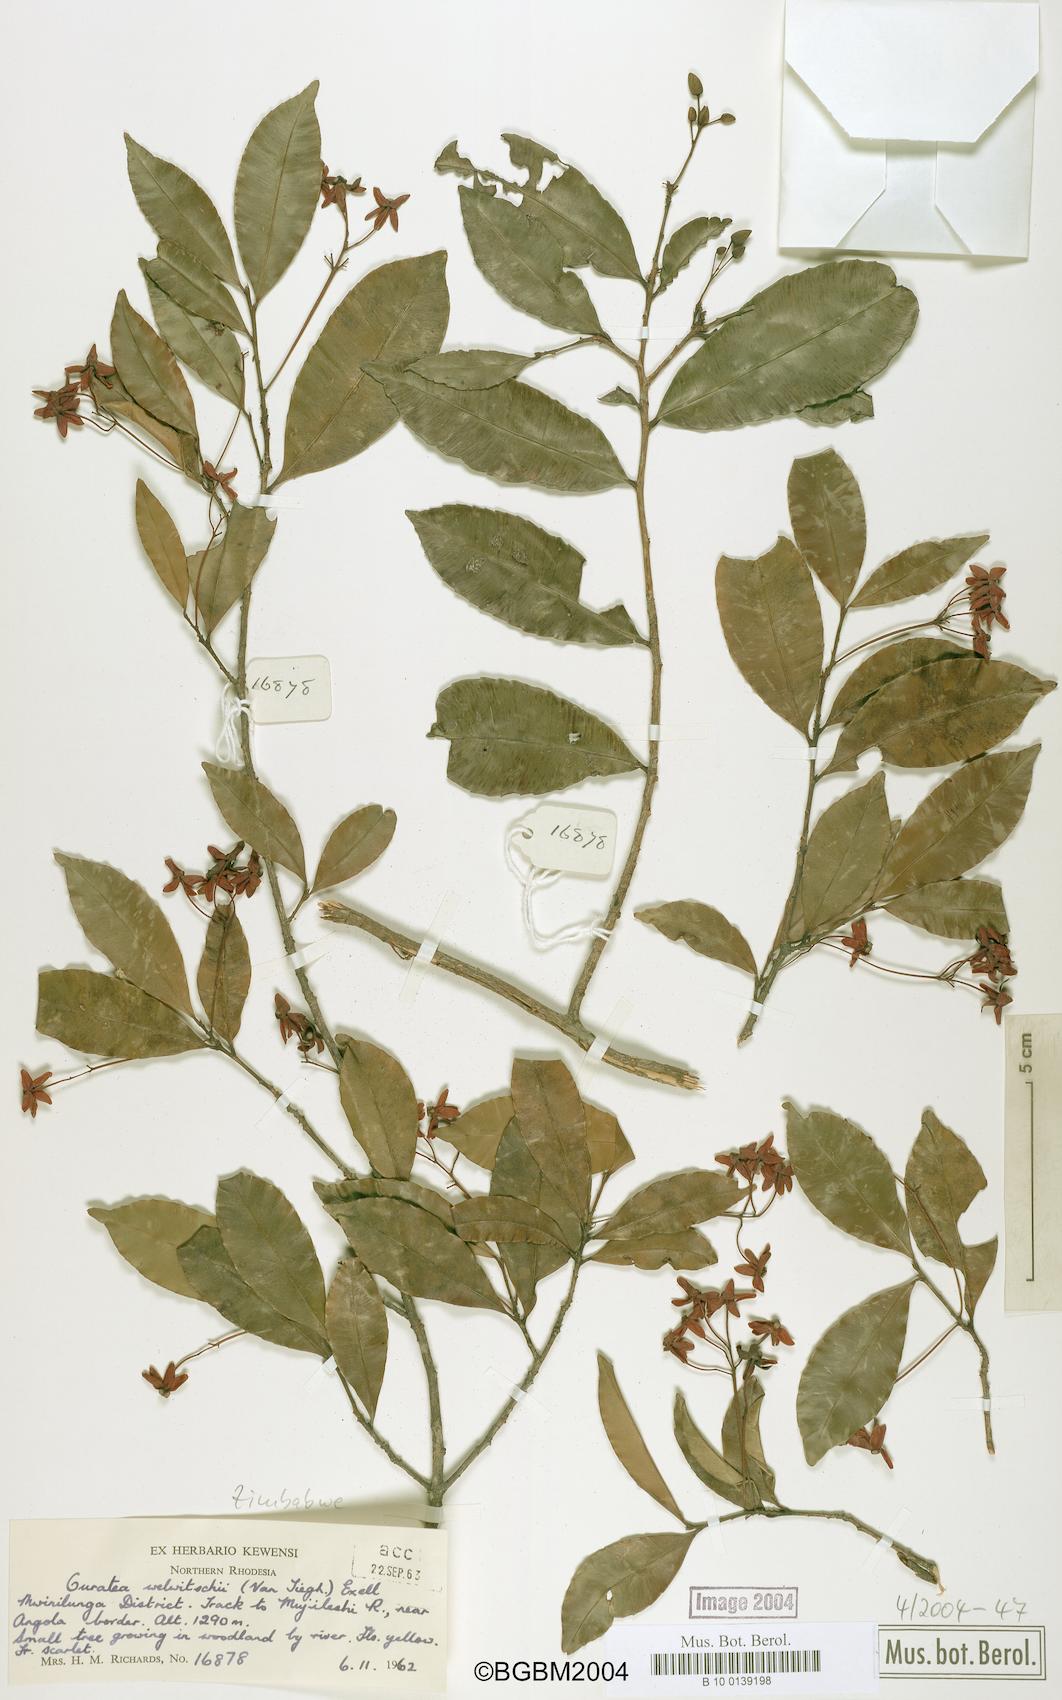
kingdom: Plantae
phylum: Tracheophyta
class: Magnoliopsida
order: Malpighiales
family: Ochnaceae
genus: Rhabdophyllum
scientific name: Rhabdophyllum welwitschii
